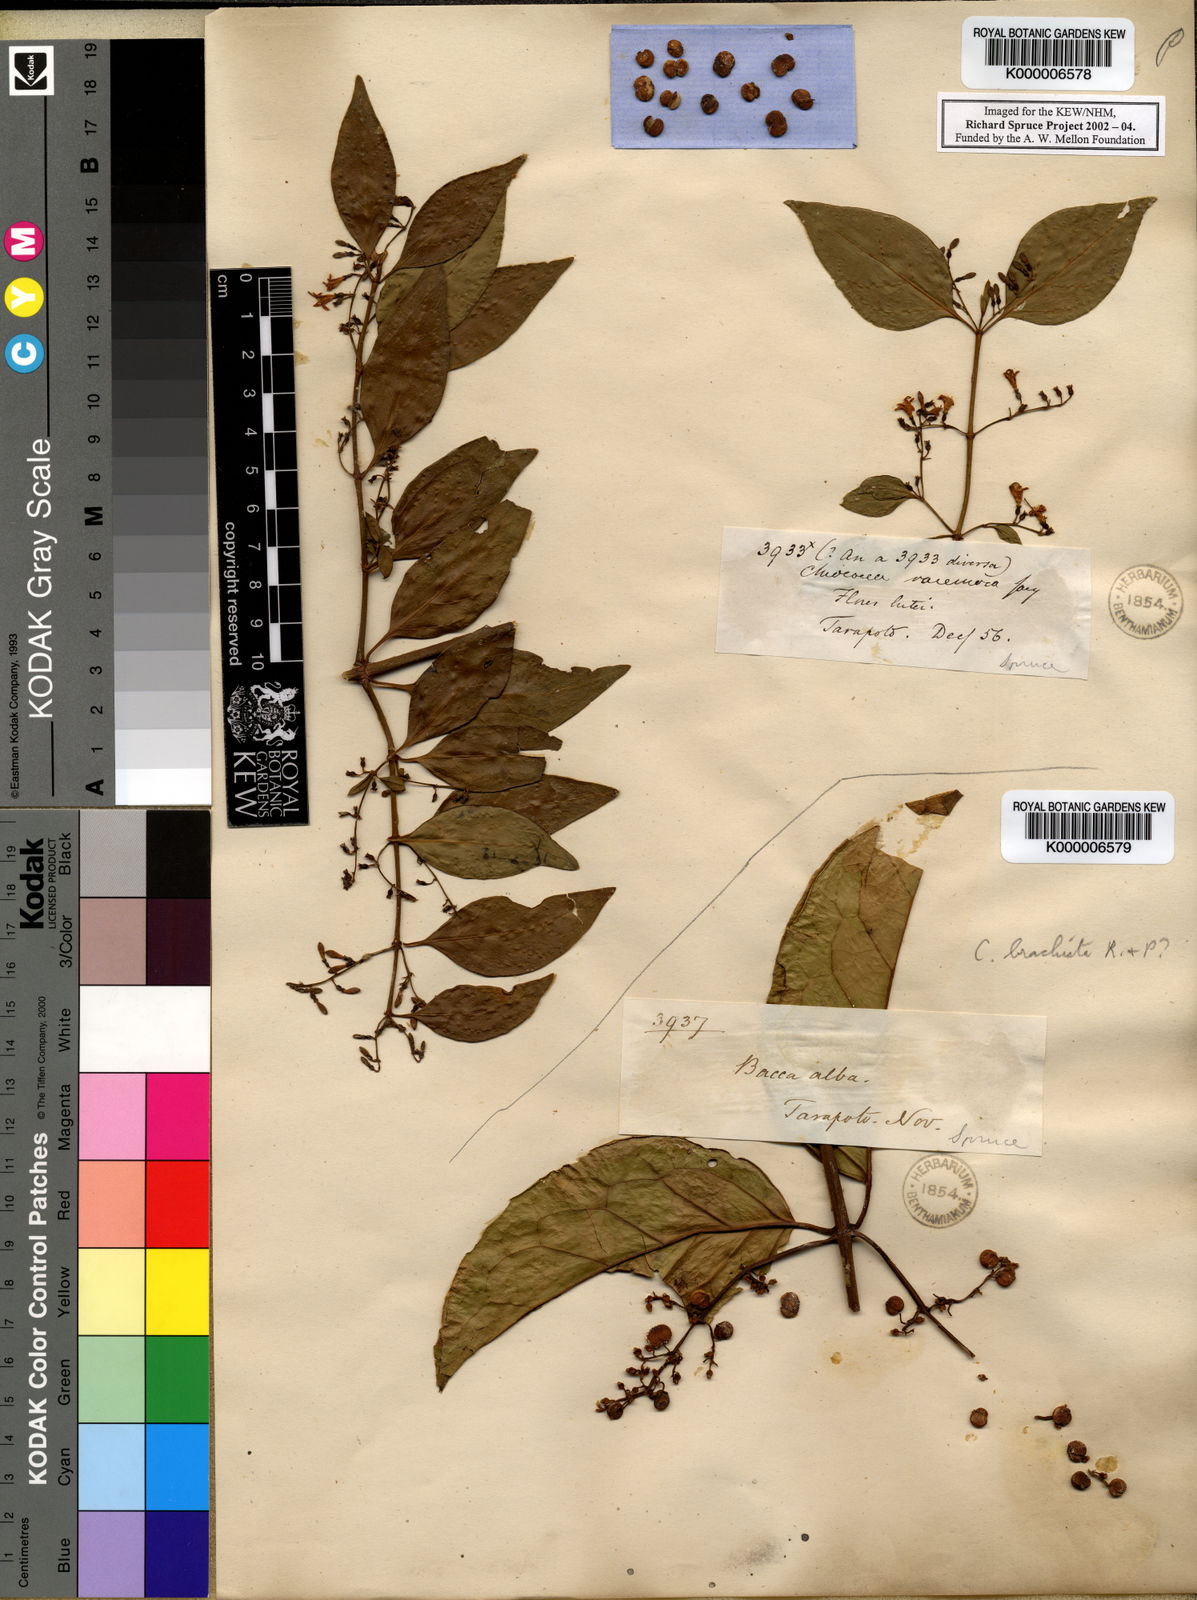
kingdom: Plantae
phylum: Tracheophyta
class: Magnoliopsida
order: Gentianales
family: Rubiaceae
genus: Chiococca
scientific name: Chiococca alba
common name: Snowberry
